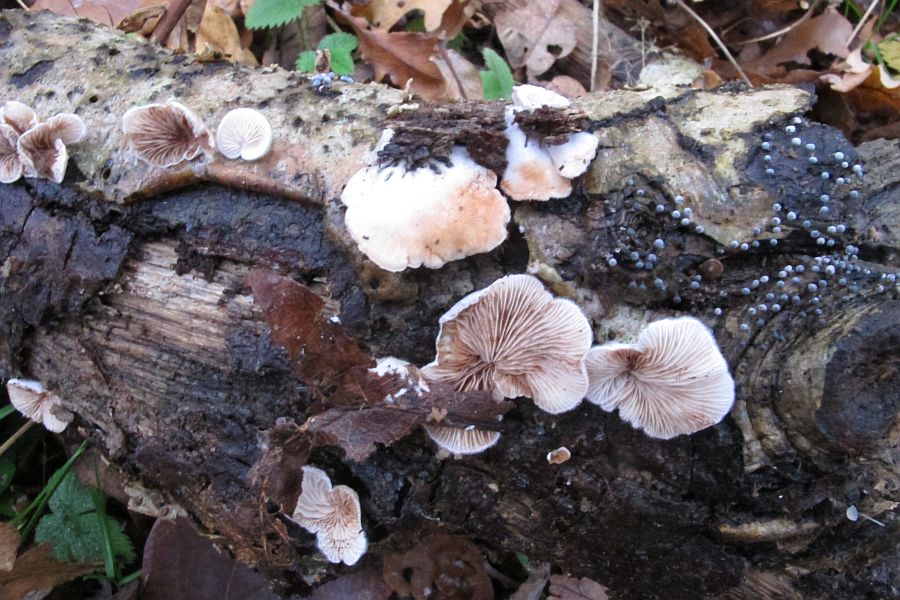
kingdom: Fungi
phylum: Basidiomycota
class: Agaricomycetes
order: Agaricales
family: Crepidotaceae
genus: Crepidotus
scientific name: Crepidotus variabilis
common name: forskelligformet muslingesvamp
